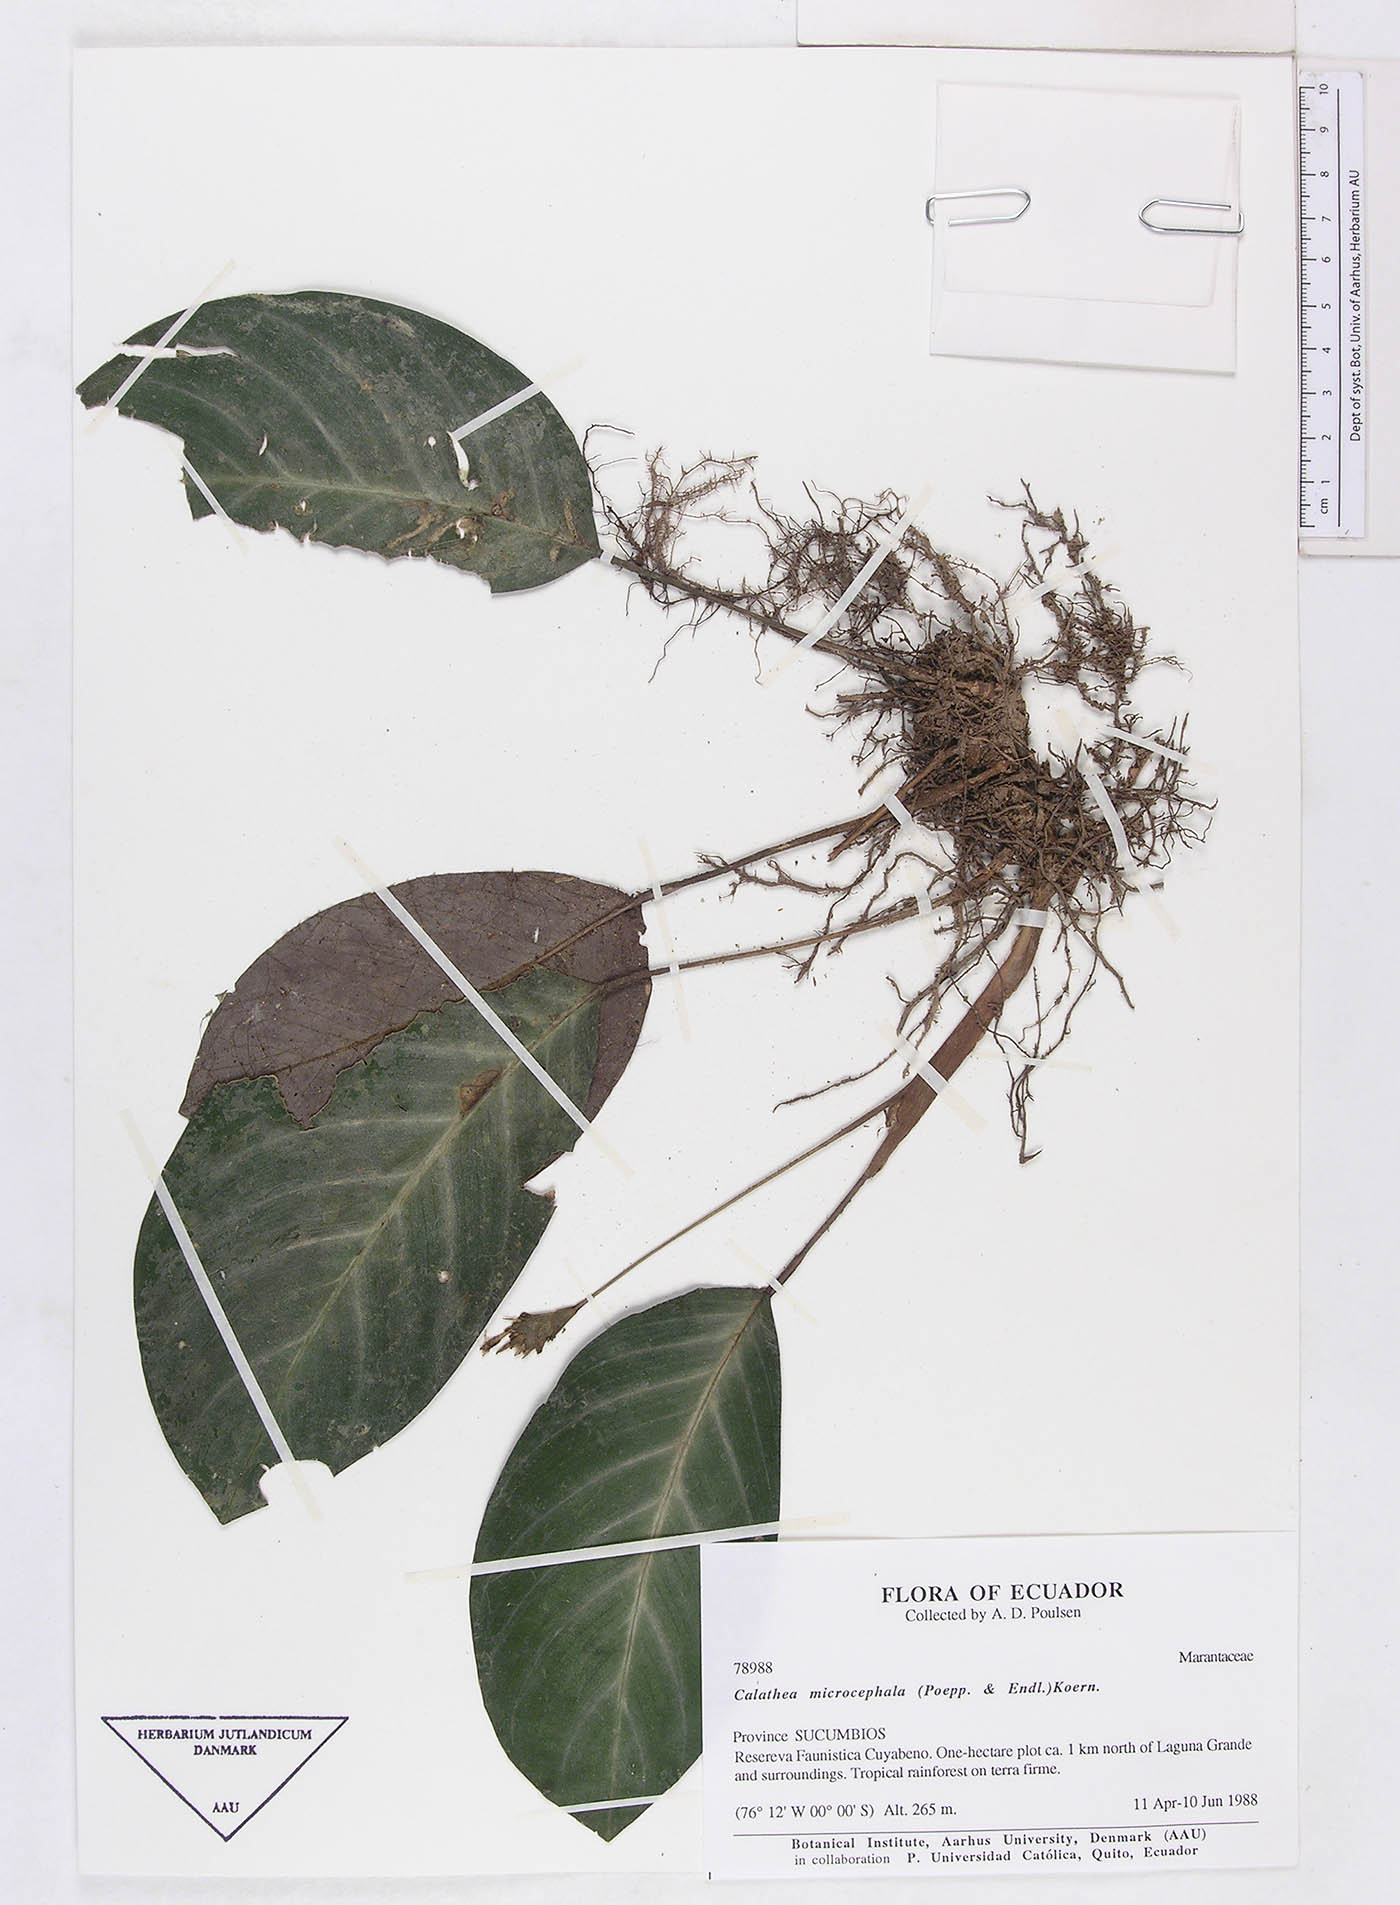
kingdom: Plantae
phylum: Tracheophyta
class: Liliopsida
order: Zingiberales
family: Marantaceae
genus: Goeppertia
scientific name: Goeppertia fucata
